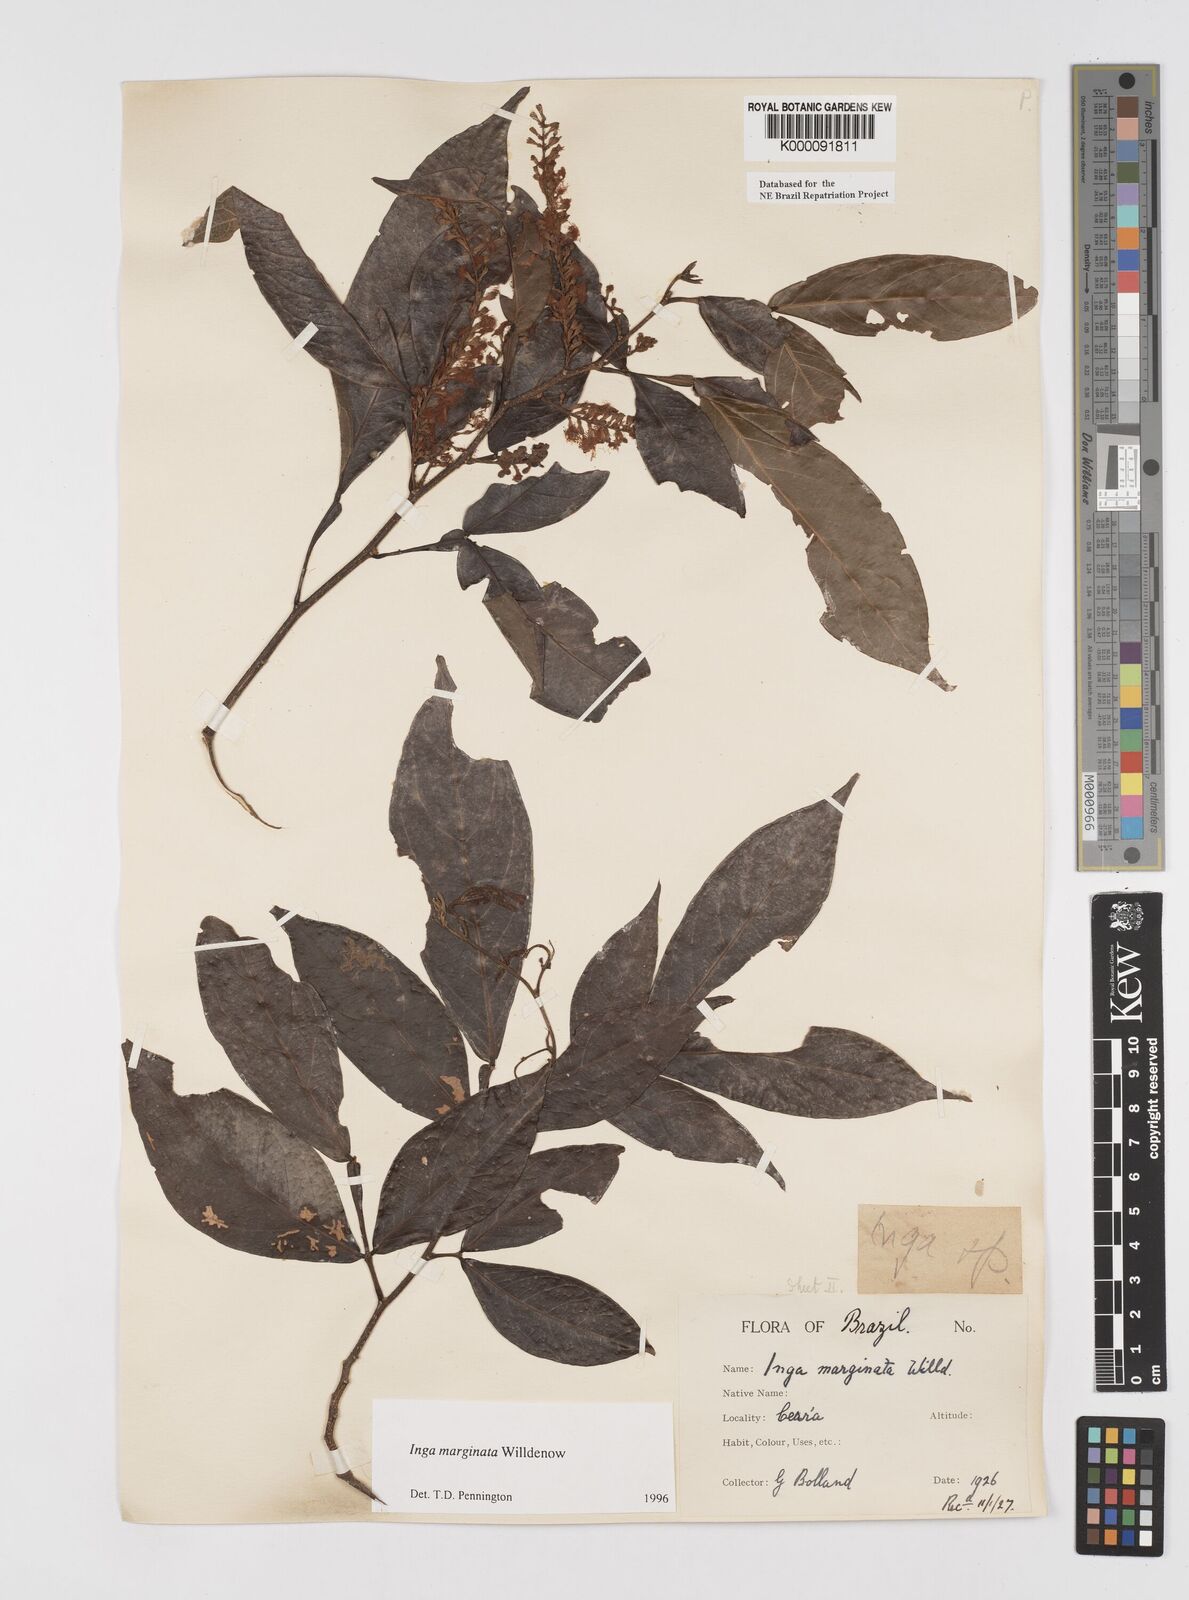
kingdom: Plantae
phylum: Tracheophyta
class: Magnoliopsida
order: Fabales
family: Fabaceae
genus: Inga
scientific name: Inga marginata
